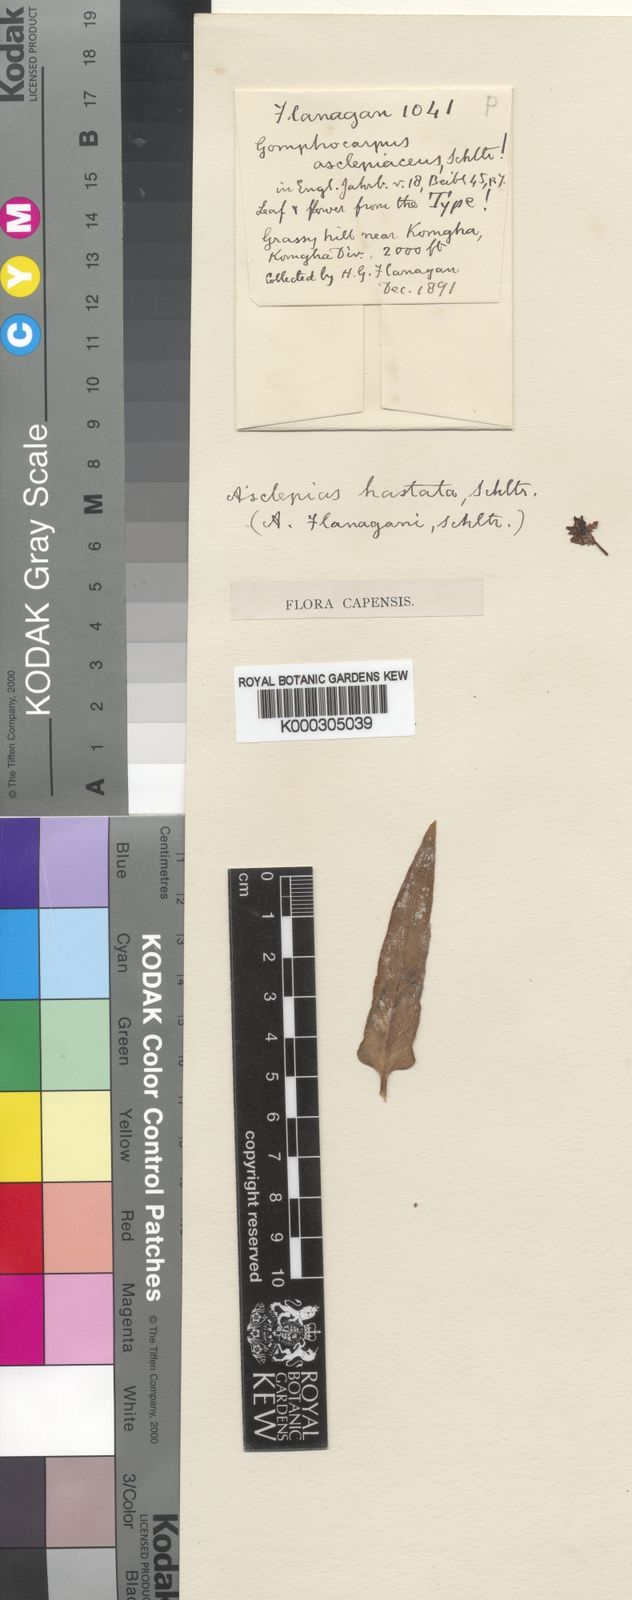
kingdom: Plantae
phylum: Tracheophyta
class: Magnoliopsida
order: Gentianales
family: Apocynaceae
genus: Asclepias
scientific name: Asclepias flanaganii
